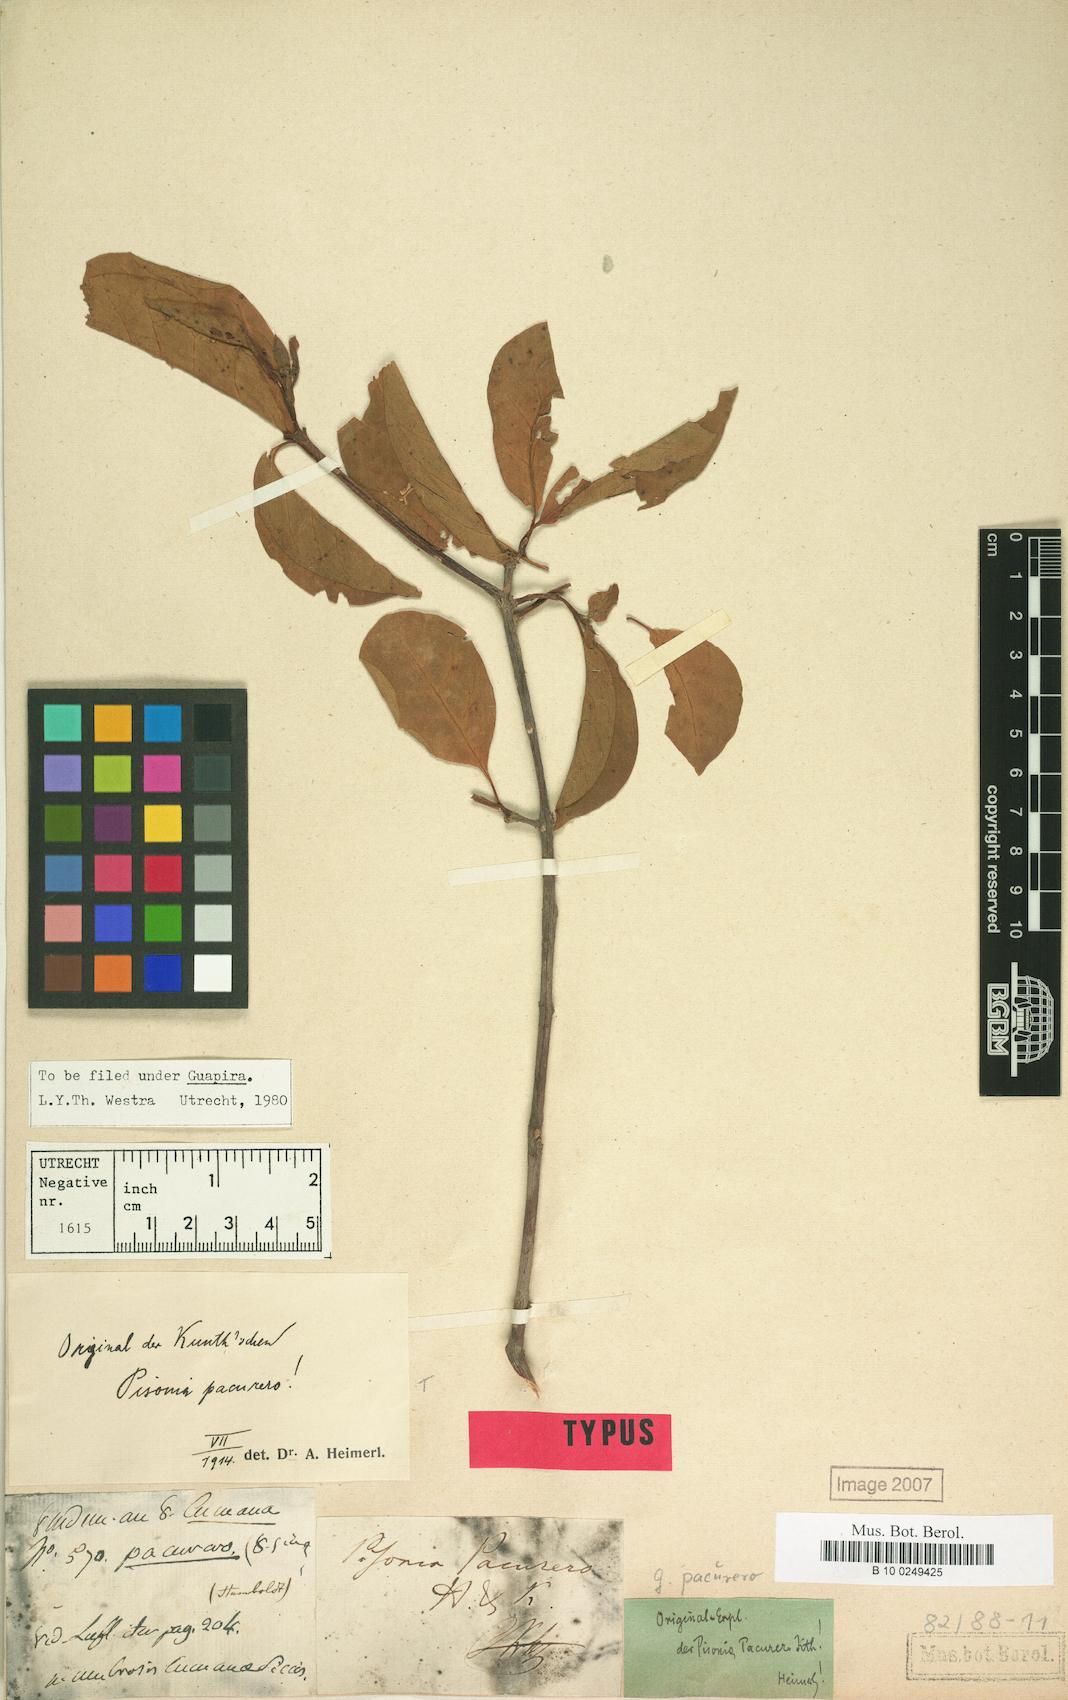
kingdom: Plantae
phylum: Tracheophyta
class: Magnoliopsida
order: Caryophyllales
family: Nyctaginaceae
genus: Guapira
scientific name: Guapira pacurero
